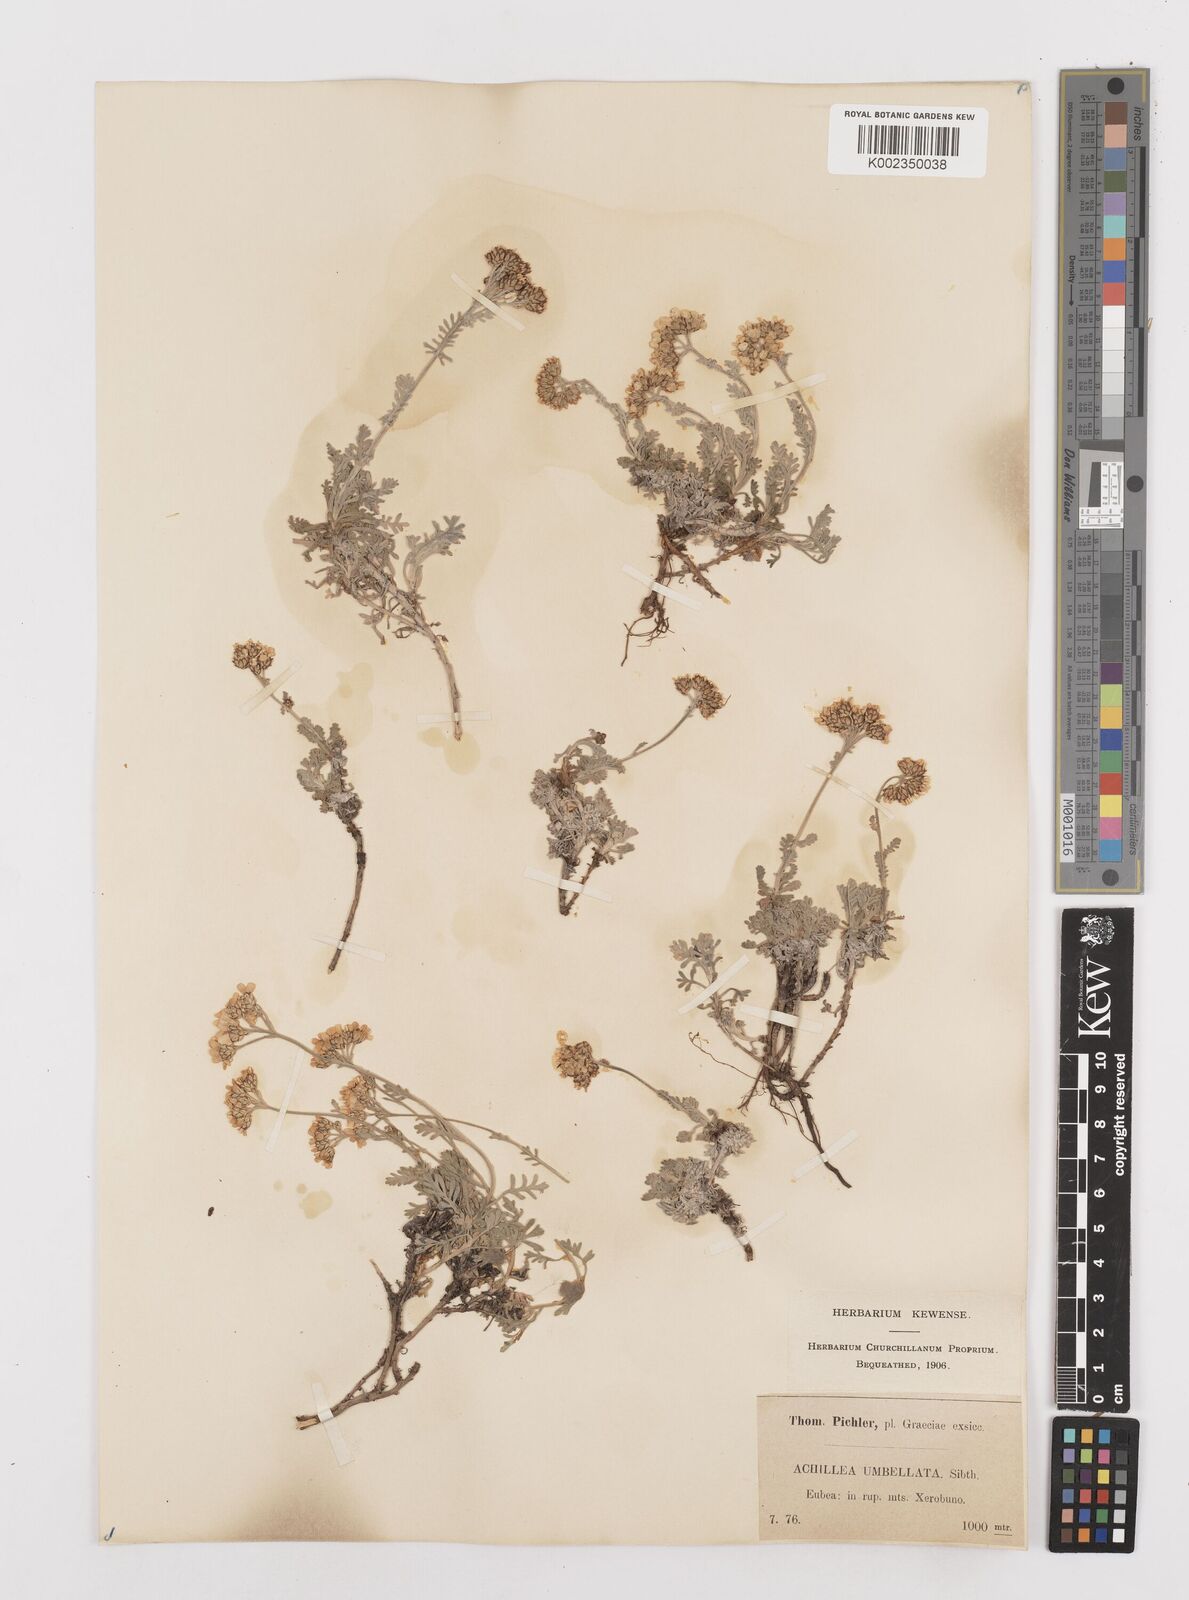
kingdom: Plantae
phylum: Tracheophyta
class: Magnoliopsida
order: Asterales
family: Asteraceae
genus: Achillea
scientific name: Achillea umbellata
